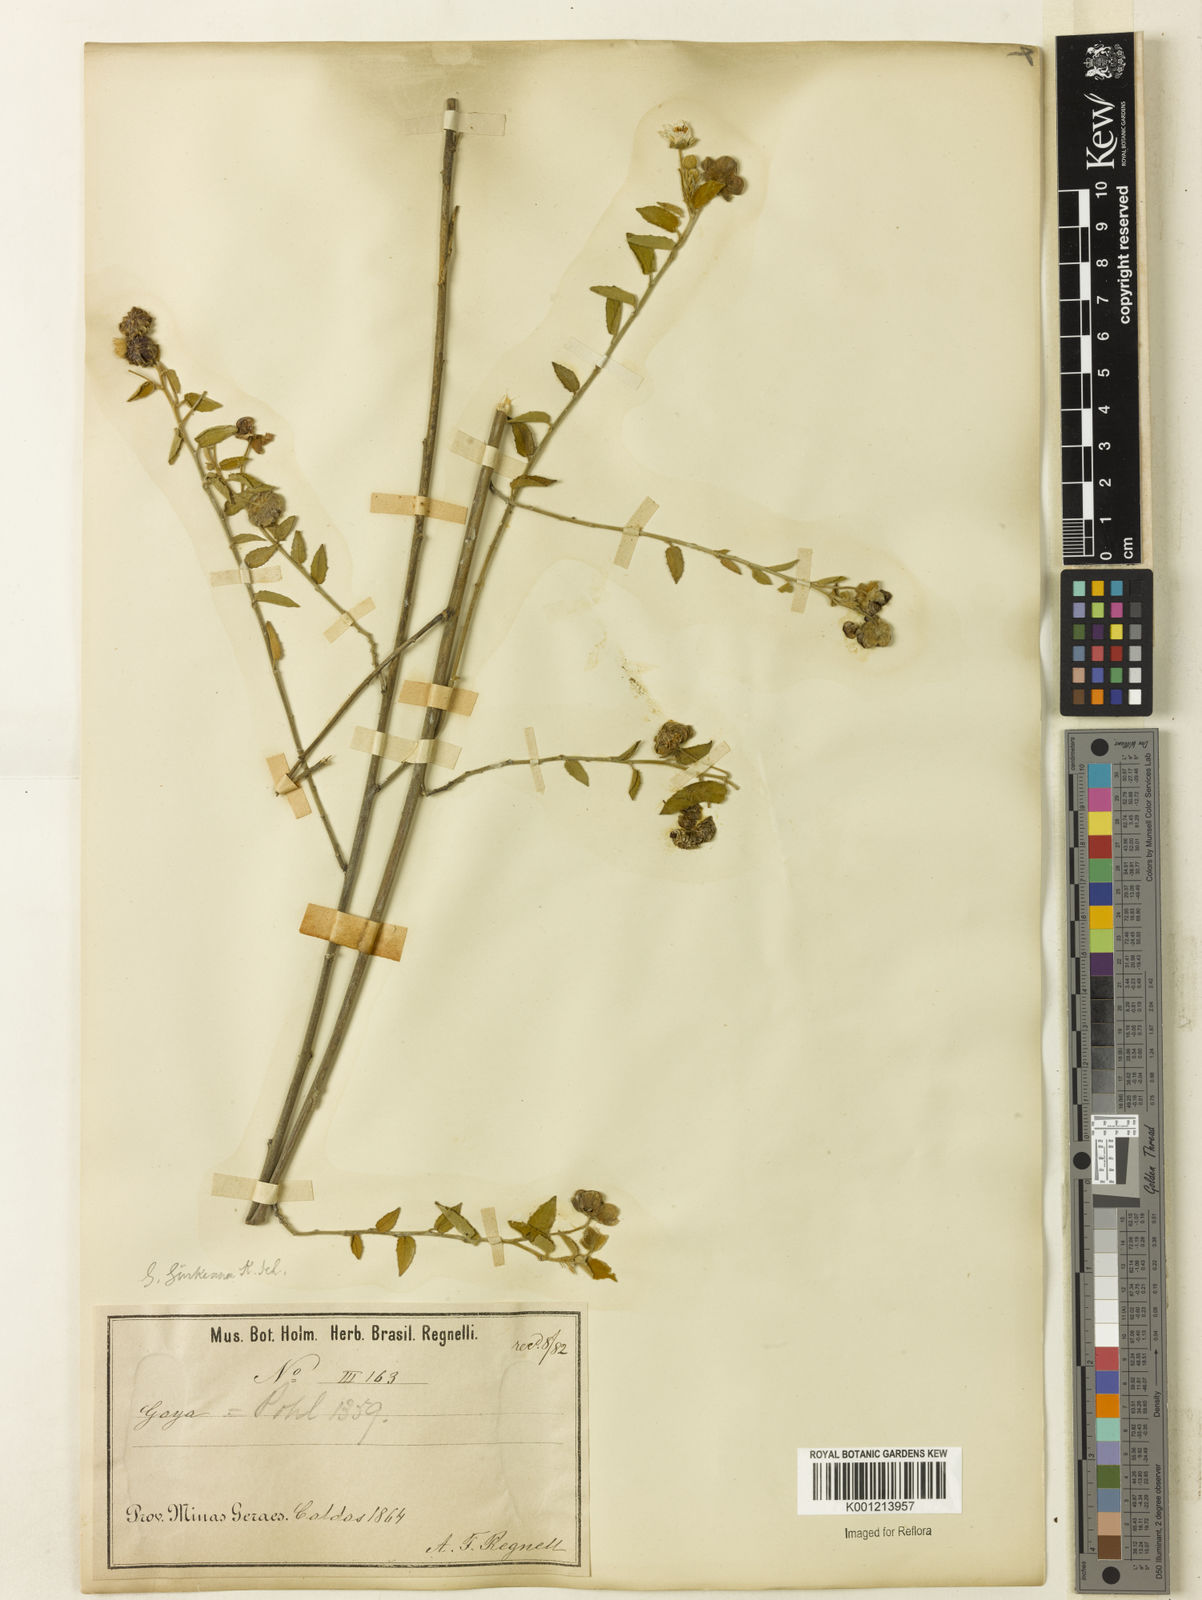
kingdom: Plantae
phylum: Tracheophyta
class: Magnoliopsida
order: Malvales
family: Malvaceae
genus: Gaya
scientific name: Gaya guerkeana
